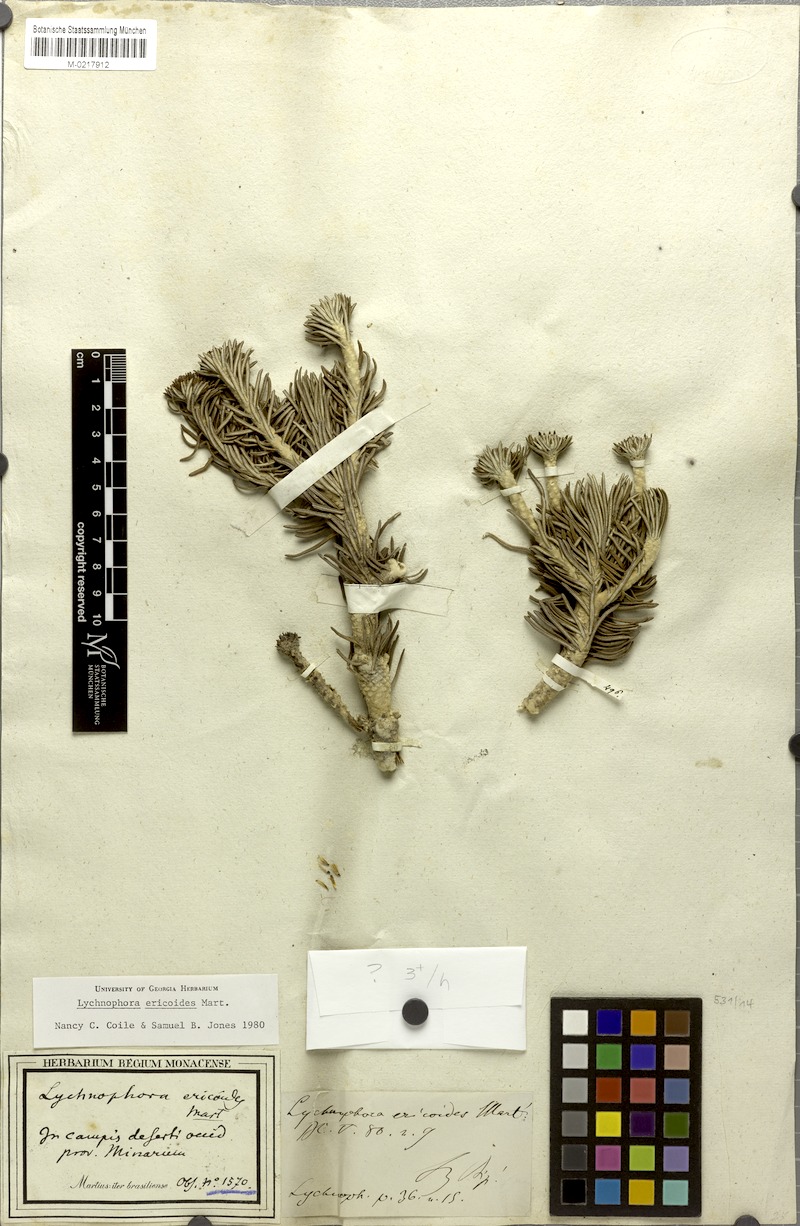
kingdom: Plantae
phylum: Tracheophyta
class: Magnoliopsida
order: Asterales
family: Asteraceae
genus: Lychnophora
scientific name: Lychnophora ericoides
